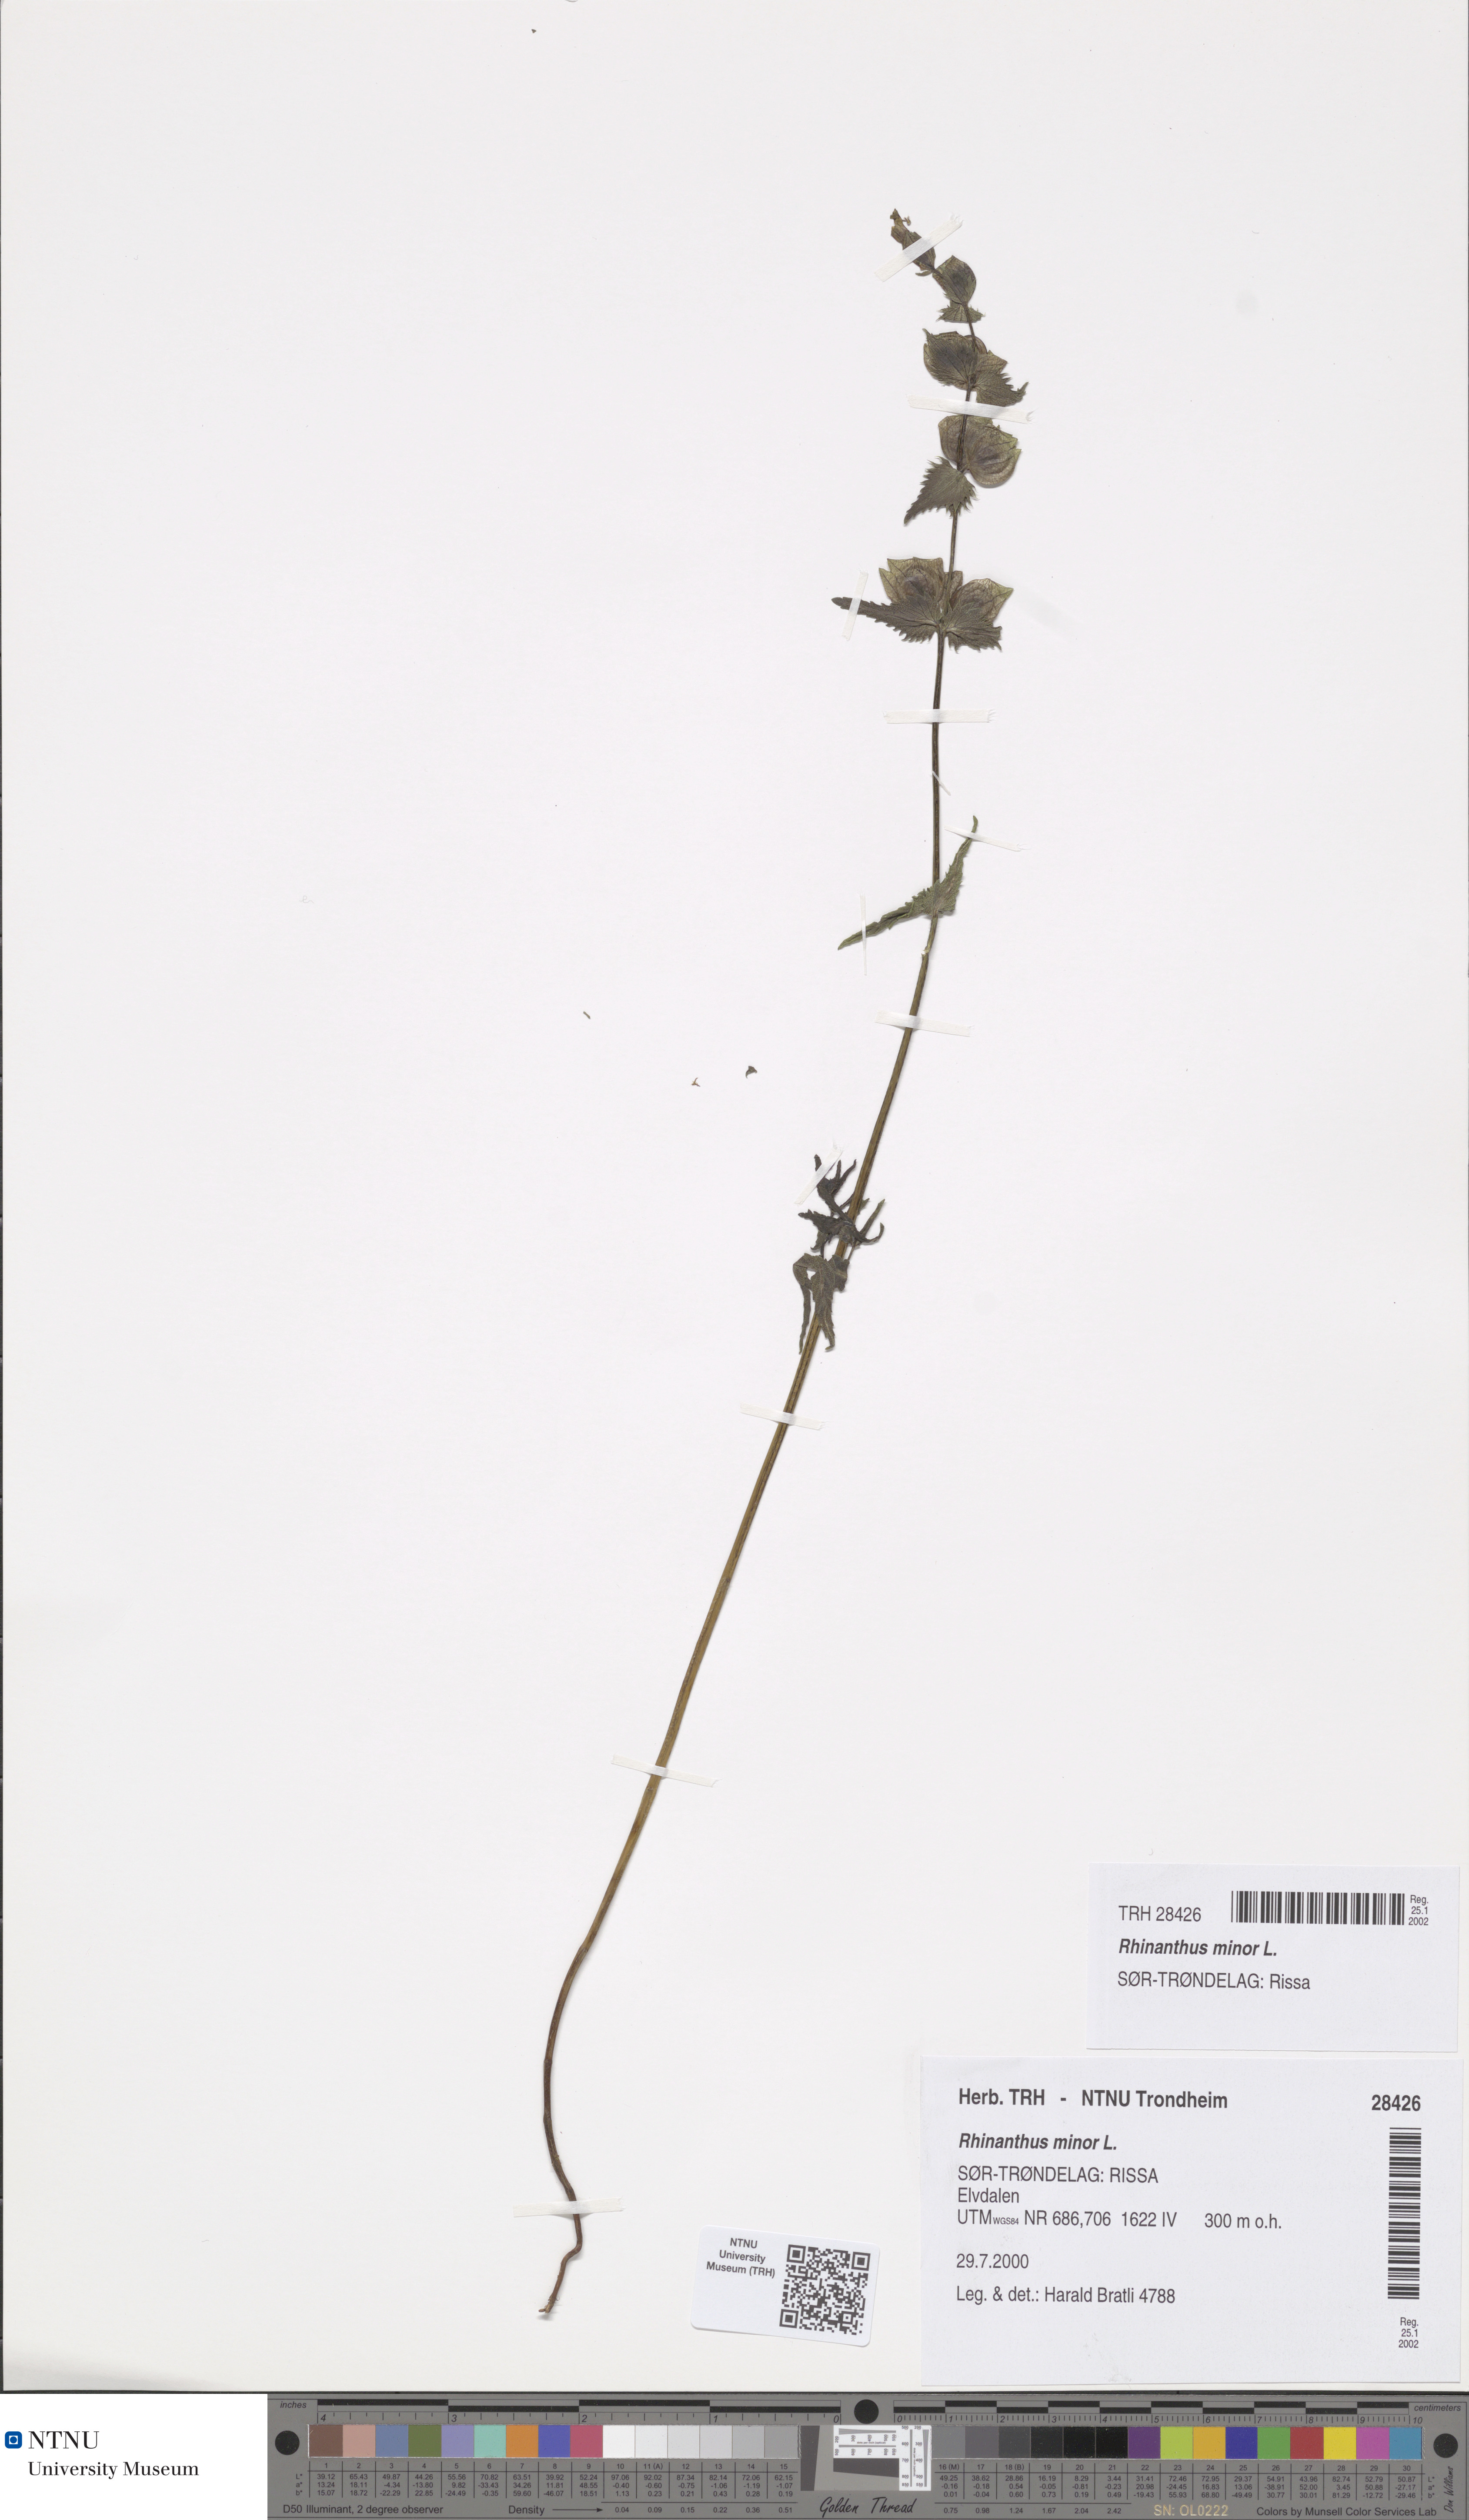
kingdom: Plantae
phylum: Tracheophyta
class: Magnoliopsida
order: Lamiales
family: Orobanchaceae
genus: Rhinanthus
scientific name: Rhinanthus minor
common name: Yellow-rattle
